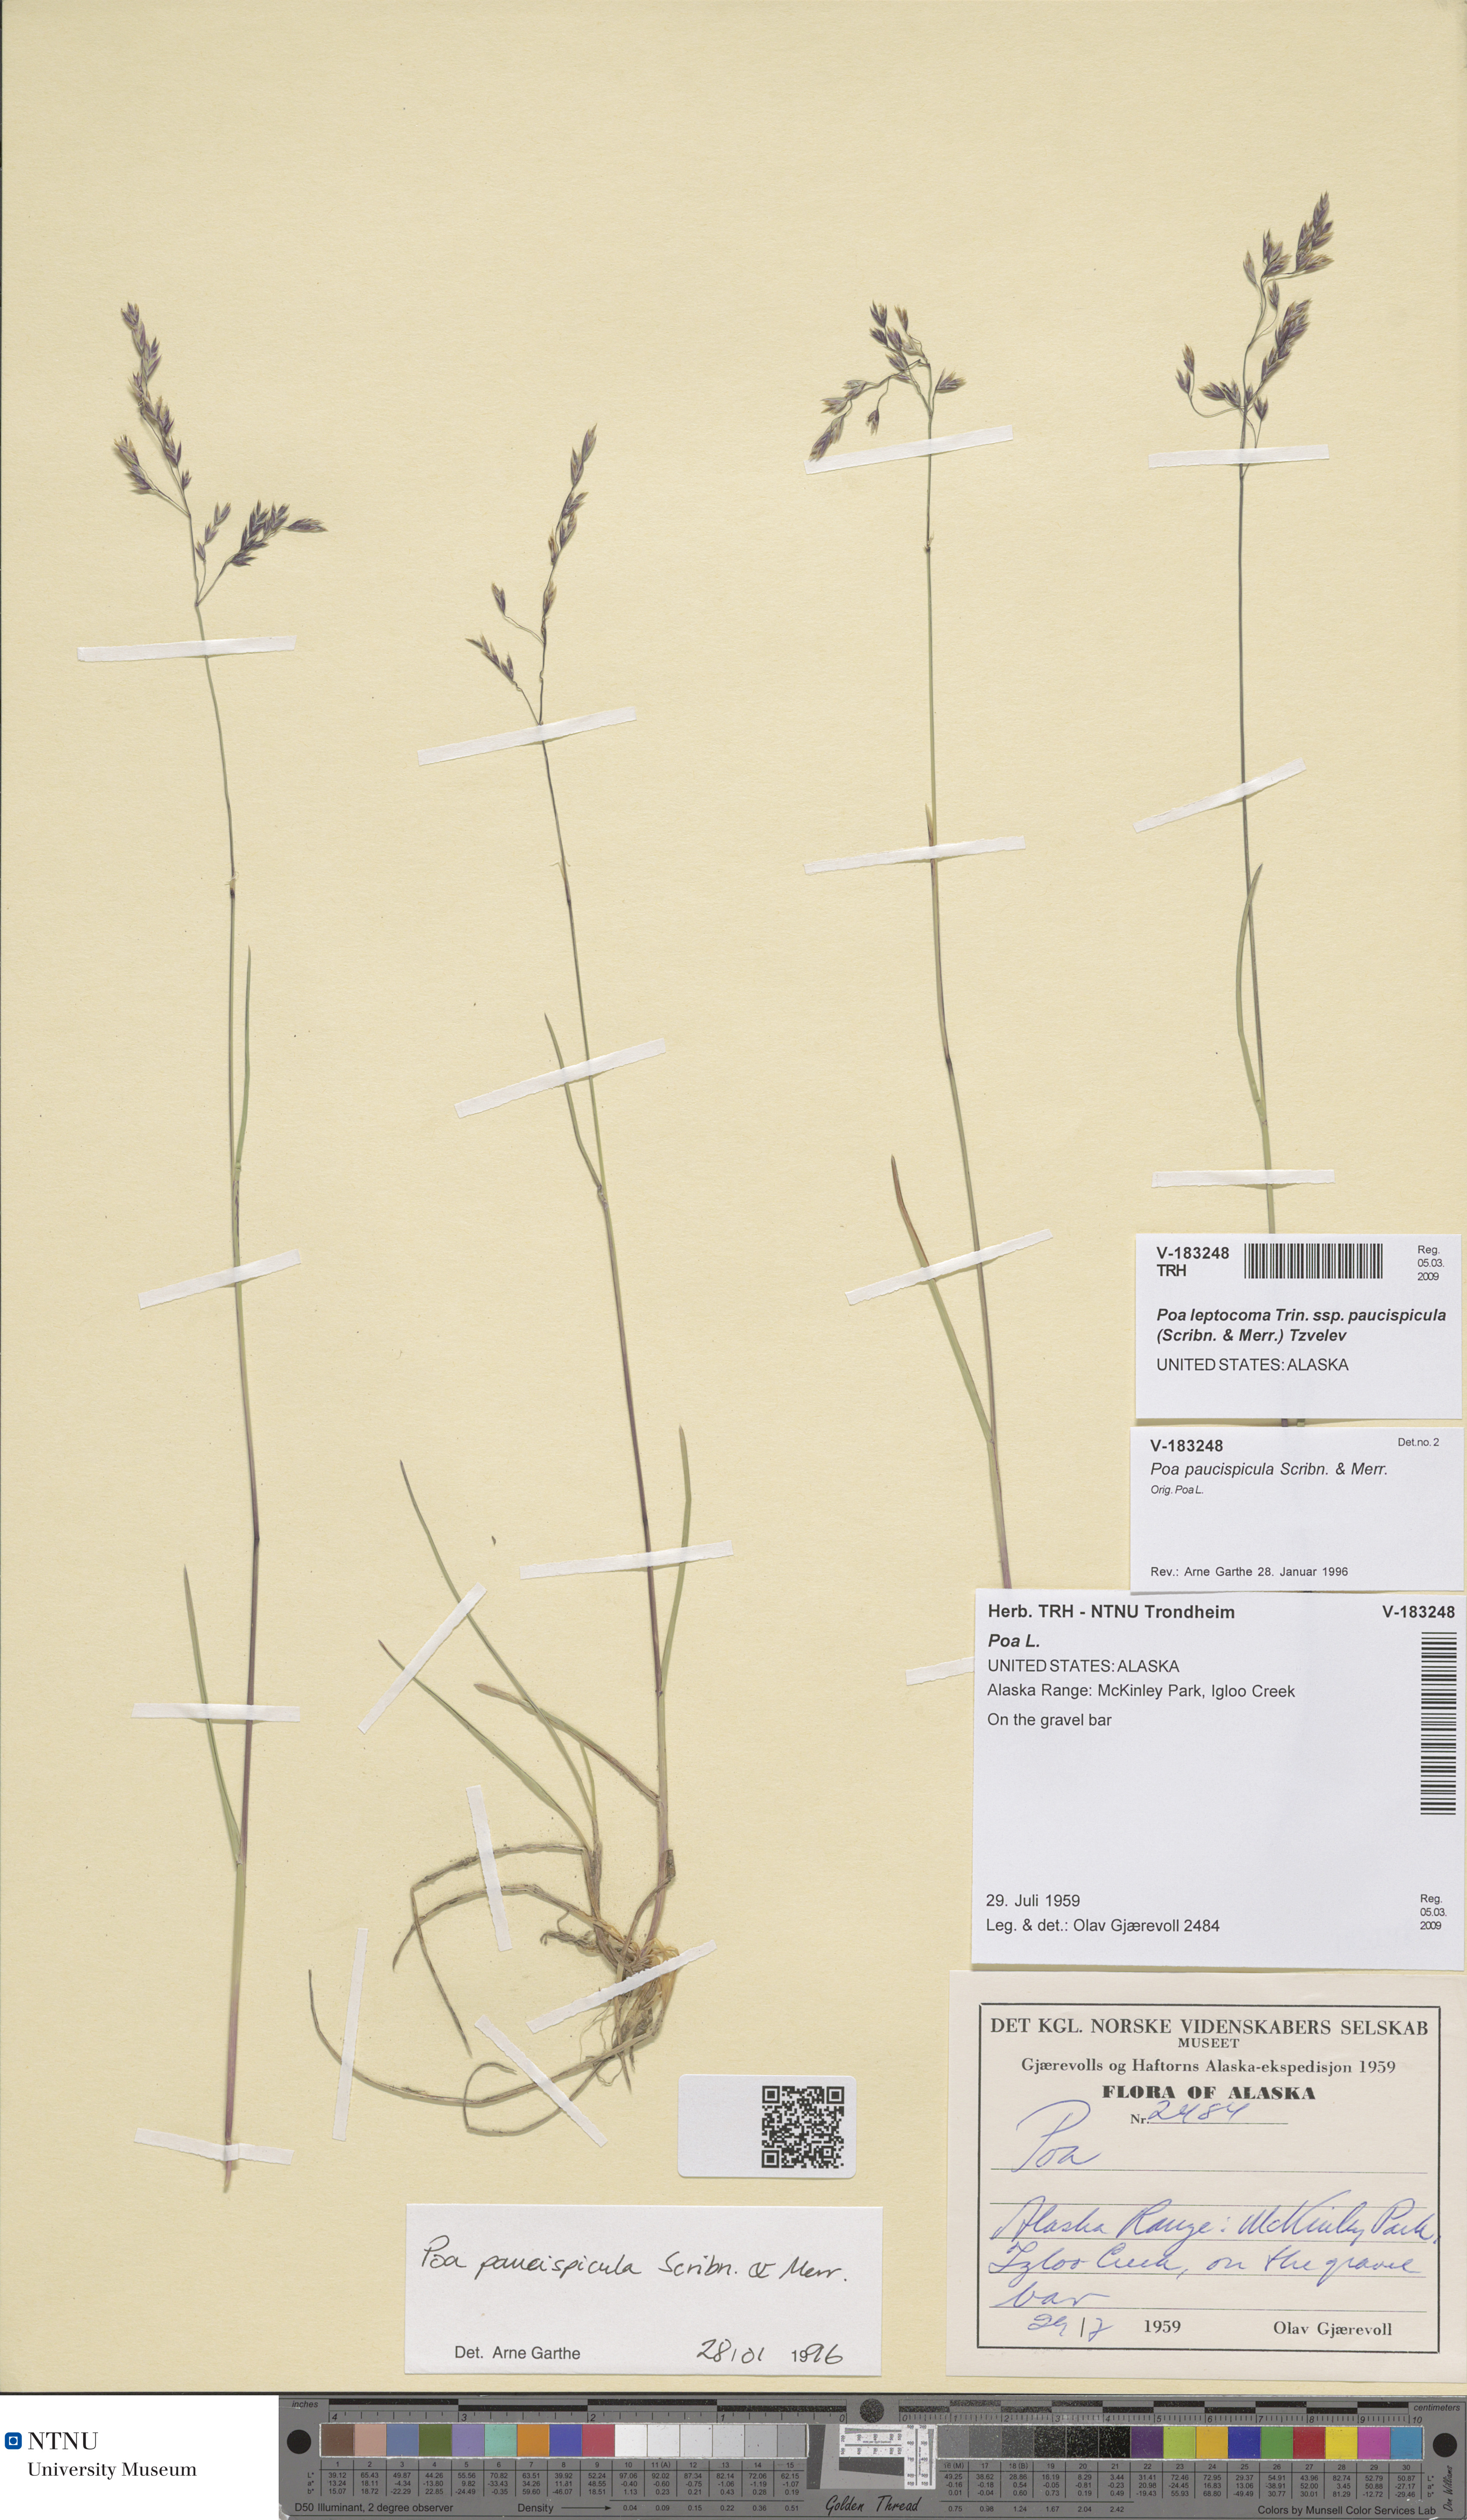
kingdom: Plantae
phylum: Tracheophyta
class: Liliopsida
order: Poales
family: Poaceae
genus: Poa
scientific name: Poa paucispicula
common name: Alaska bluegrass
